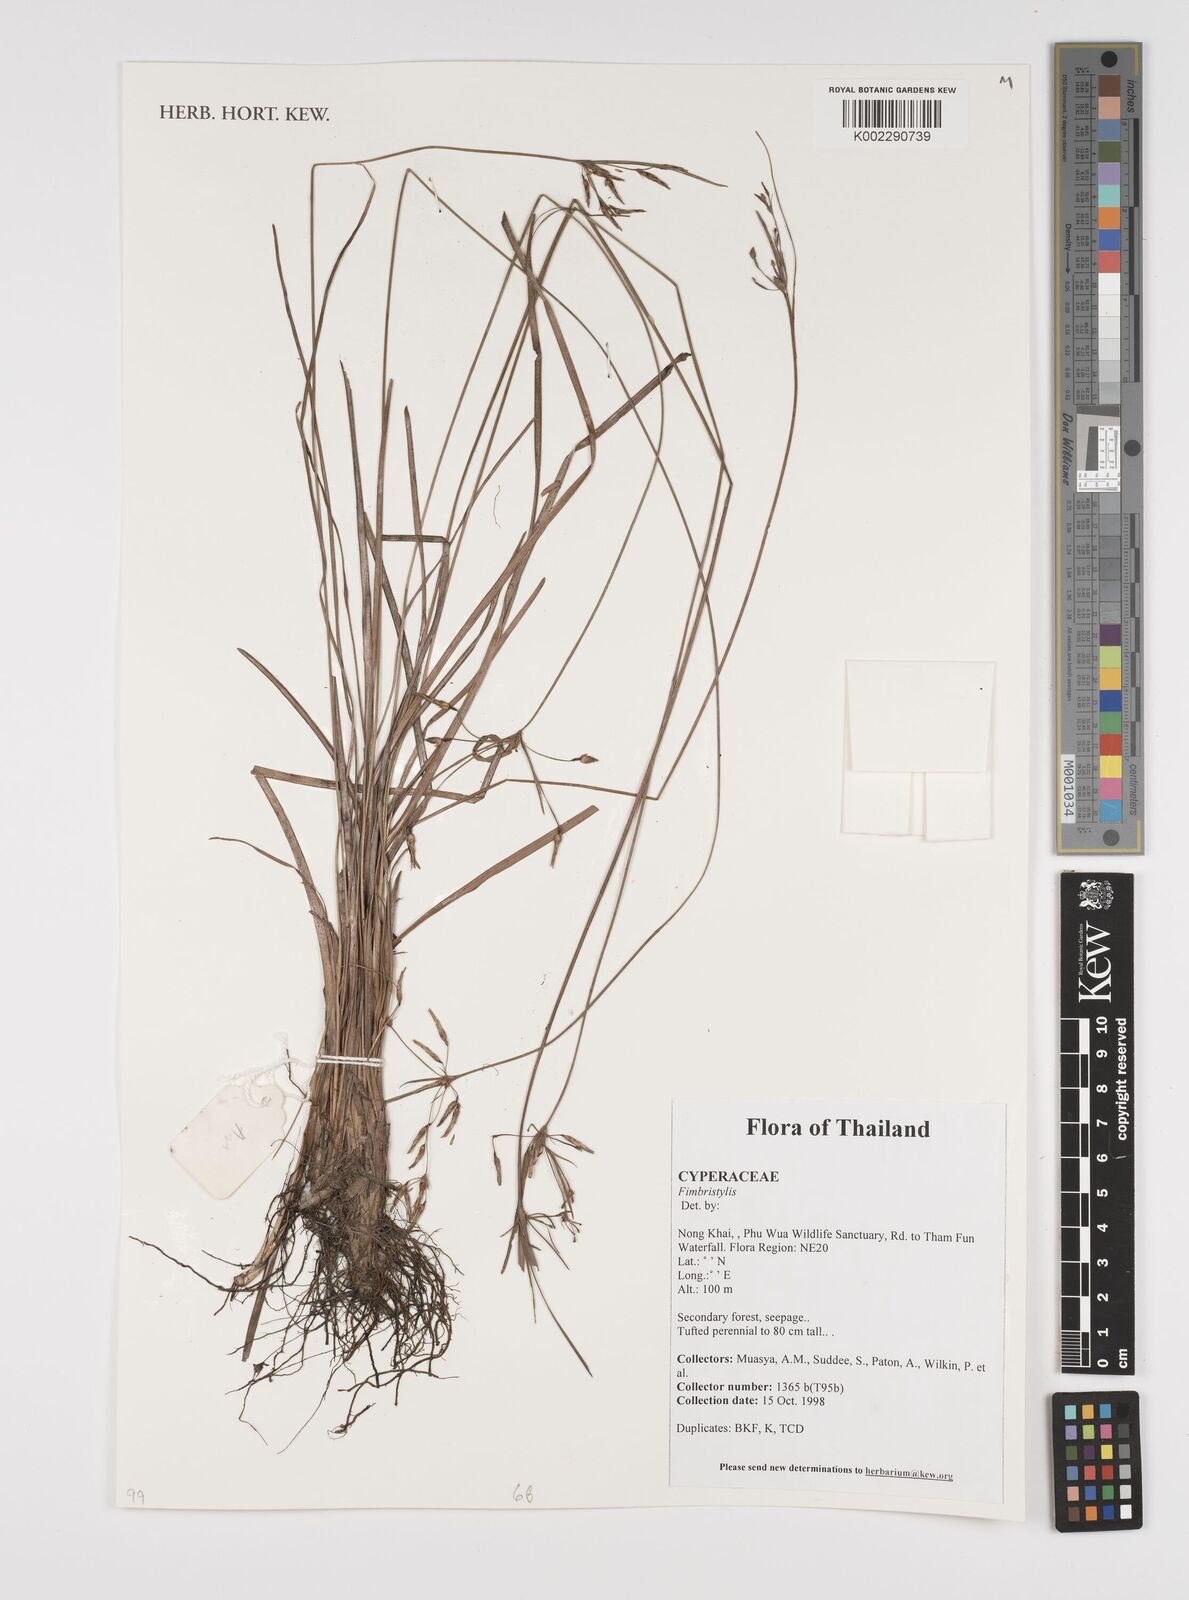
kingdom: Plantae
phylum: Tracheophyta
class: Liliopsida
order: Poales
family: Cyperaceae
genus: Fimbristylis
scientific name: Fimbristylis
